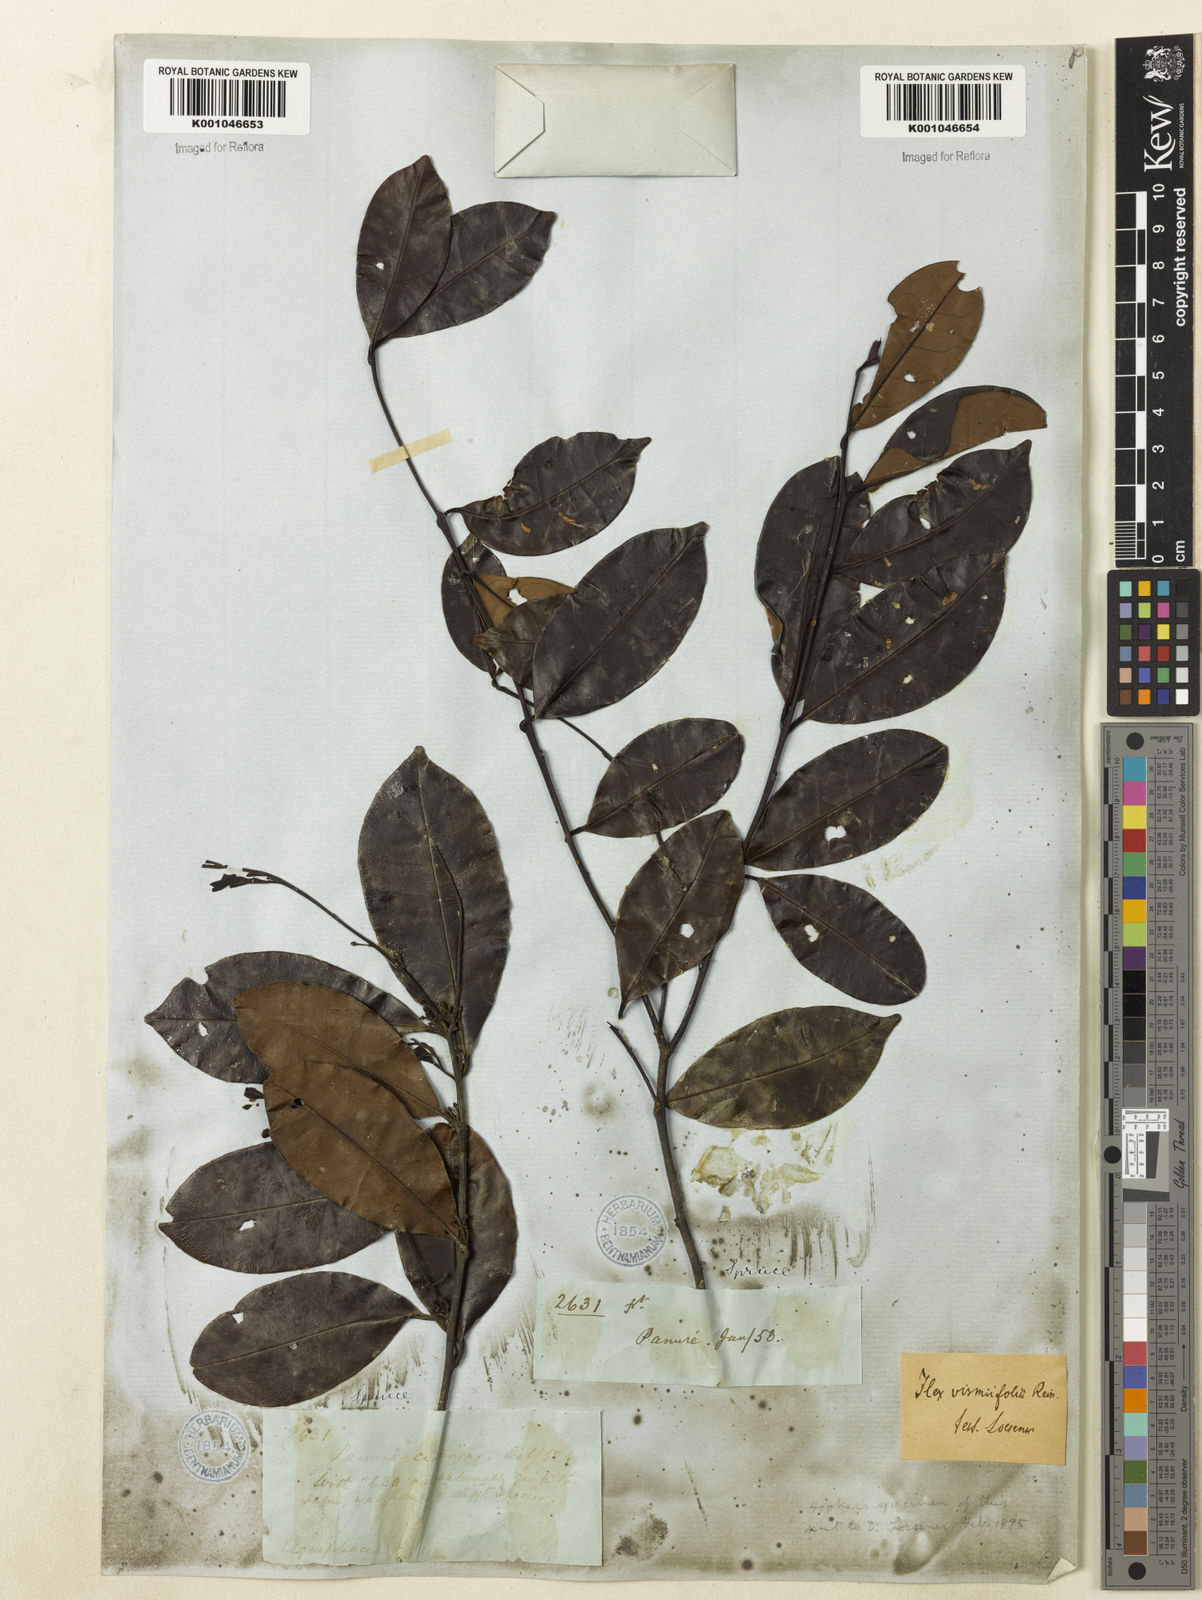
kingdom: Plantae
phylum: Tracheophyta
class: Magnoliopsida
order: Aquifoliales
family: Aquifoliaceae
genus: Ilex
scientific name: Ilex vismiifolia
